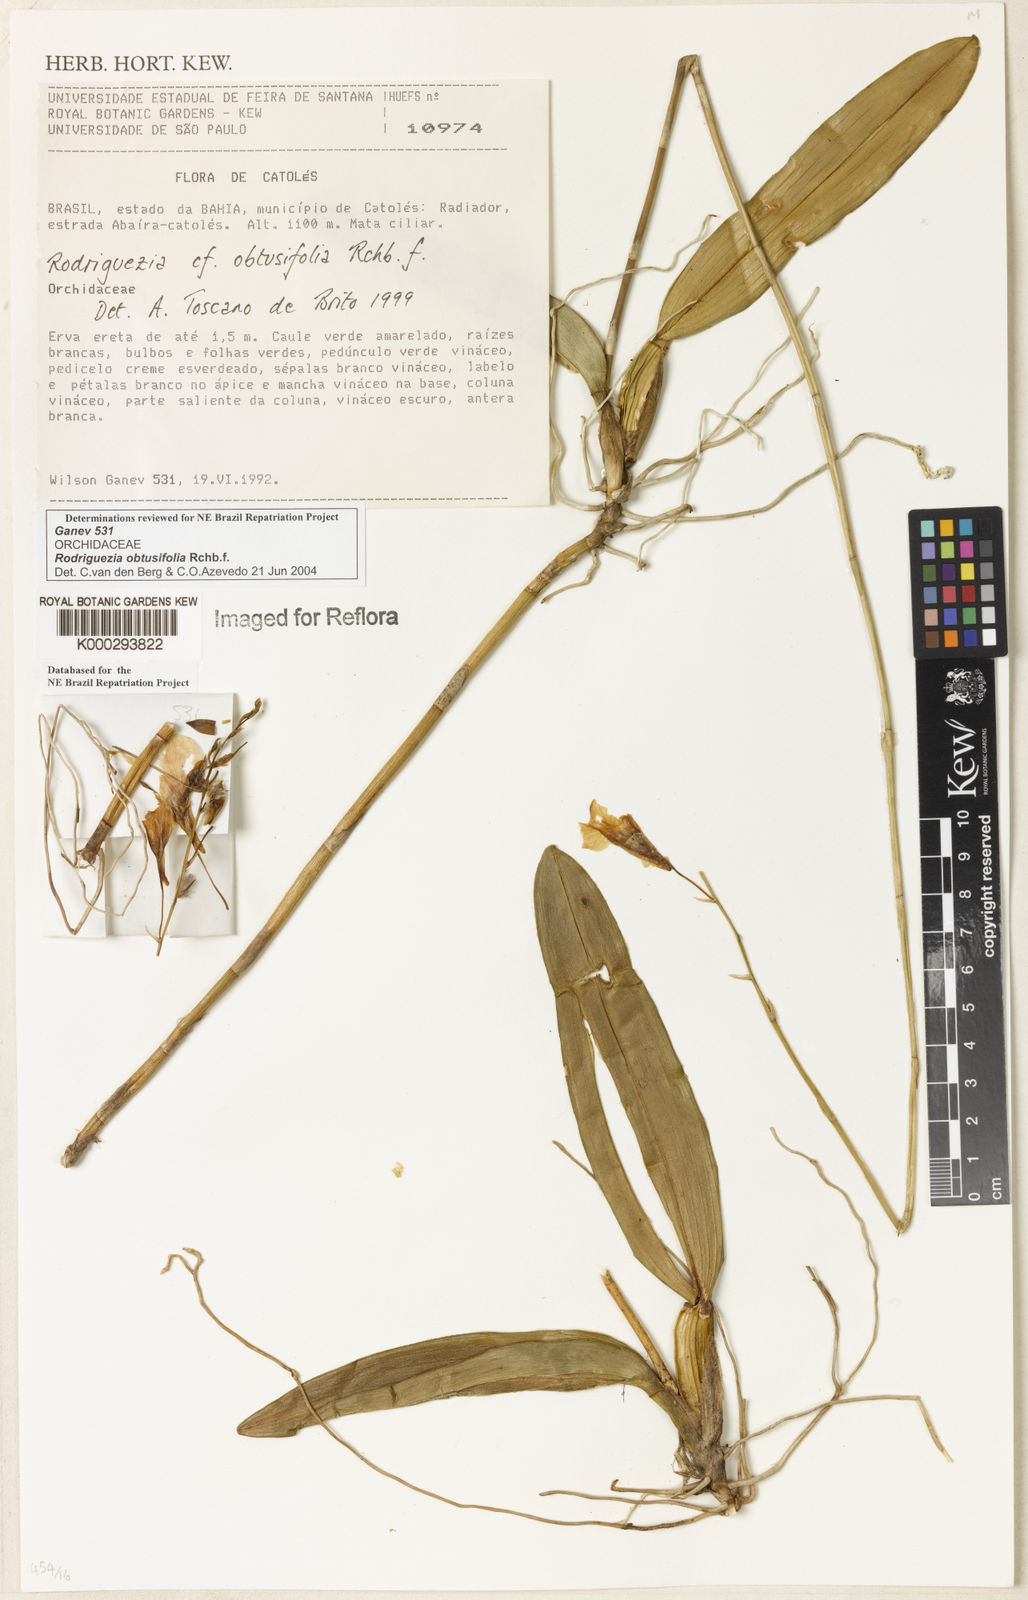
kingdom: Plantae
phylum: Tracheophyta
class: Liliopsida
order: Asparagales
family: Orchidaceae
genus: Rodriguezia
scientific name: Rodriguezia obtusifolia
